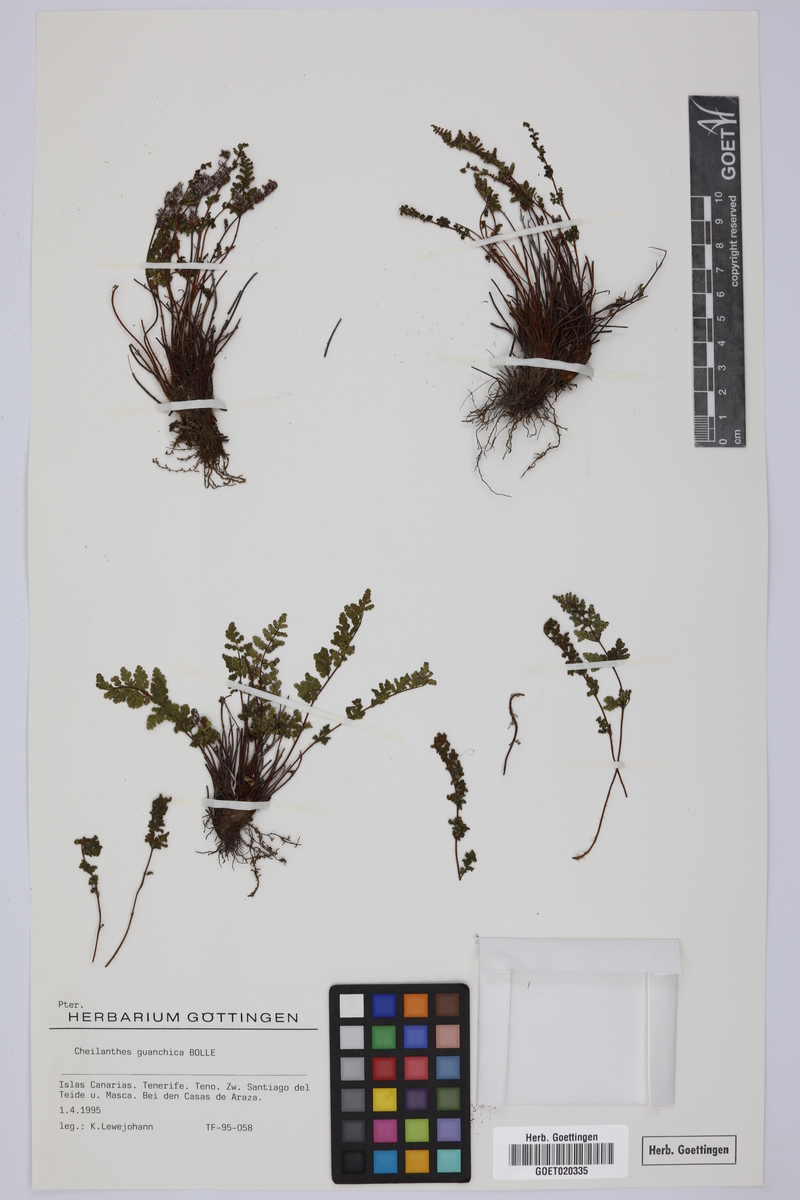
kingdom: Plantae
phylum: Tracheophyta
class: Polypodiopsida
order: Polypodiales
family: Pteridaceae
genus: Oeosporangium
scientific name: Oeosporangium guanchicum
